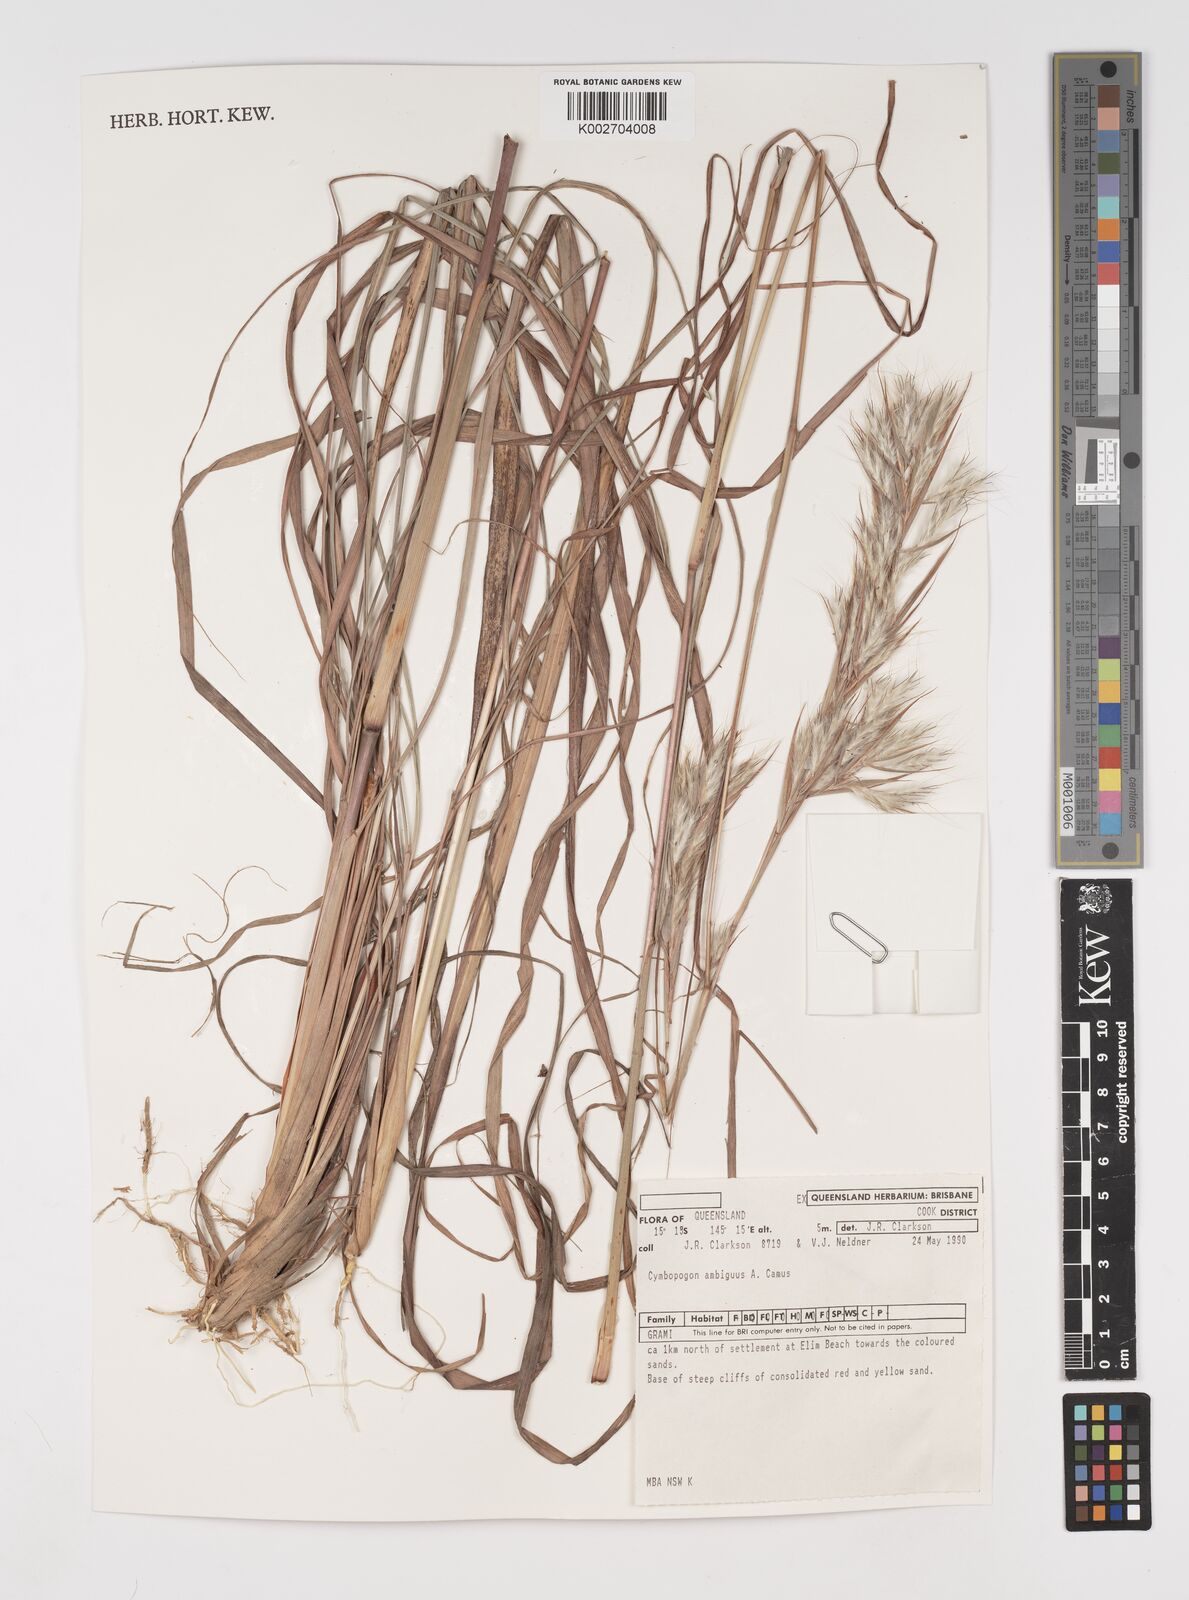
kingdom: Plantae
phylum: Tracheophyta
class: Liliopsida
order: Poales
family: Poaceae
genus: Cymbopogon
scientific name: Cymbopogon ambiguus
